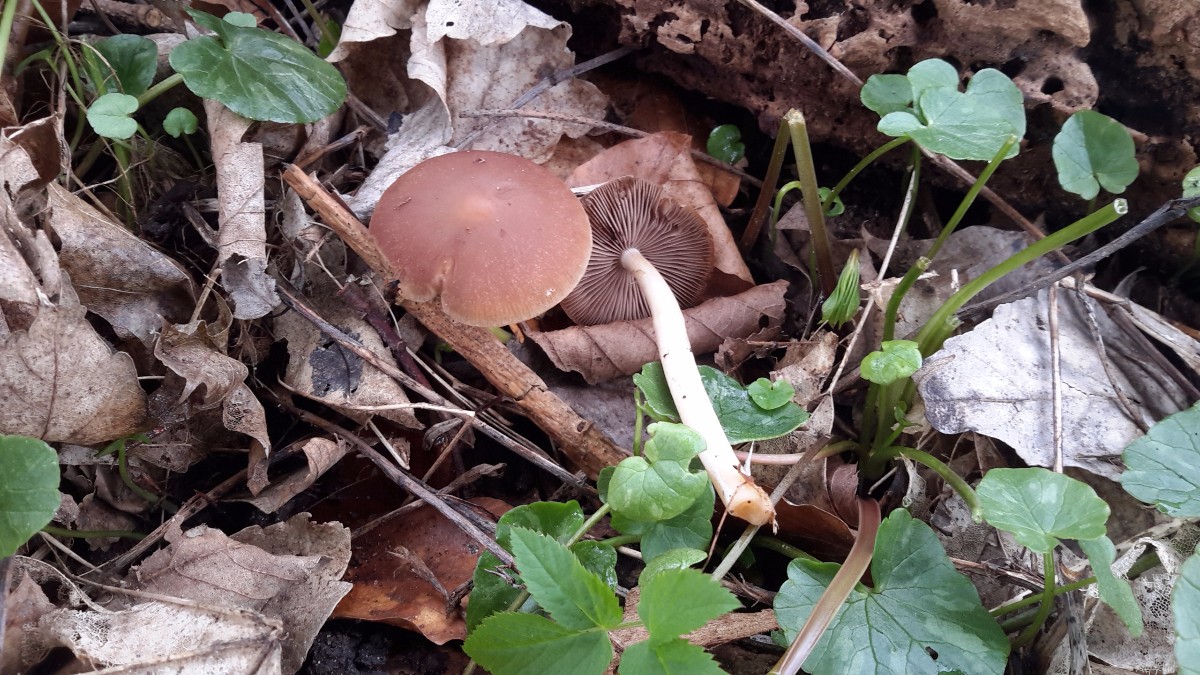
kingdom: Fungi
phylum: Basidiomycota
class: Agaricomycetes
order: Agaricales
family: Psathyrellaceae
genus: Psathyrella
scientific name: Psathyrella spadiceogrisea
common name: gråbrun mørkhat
